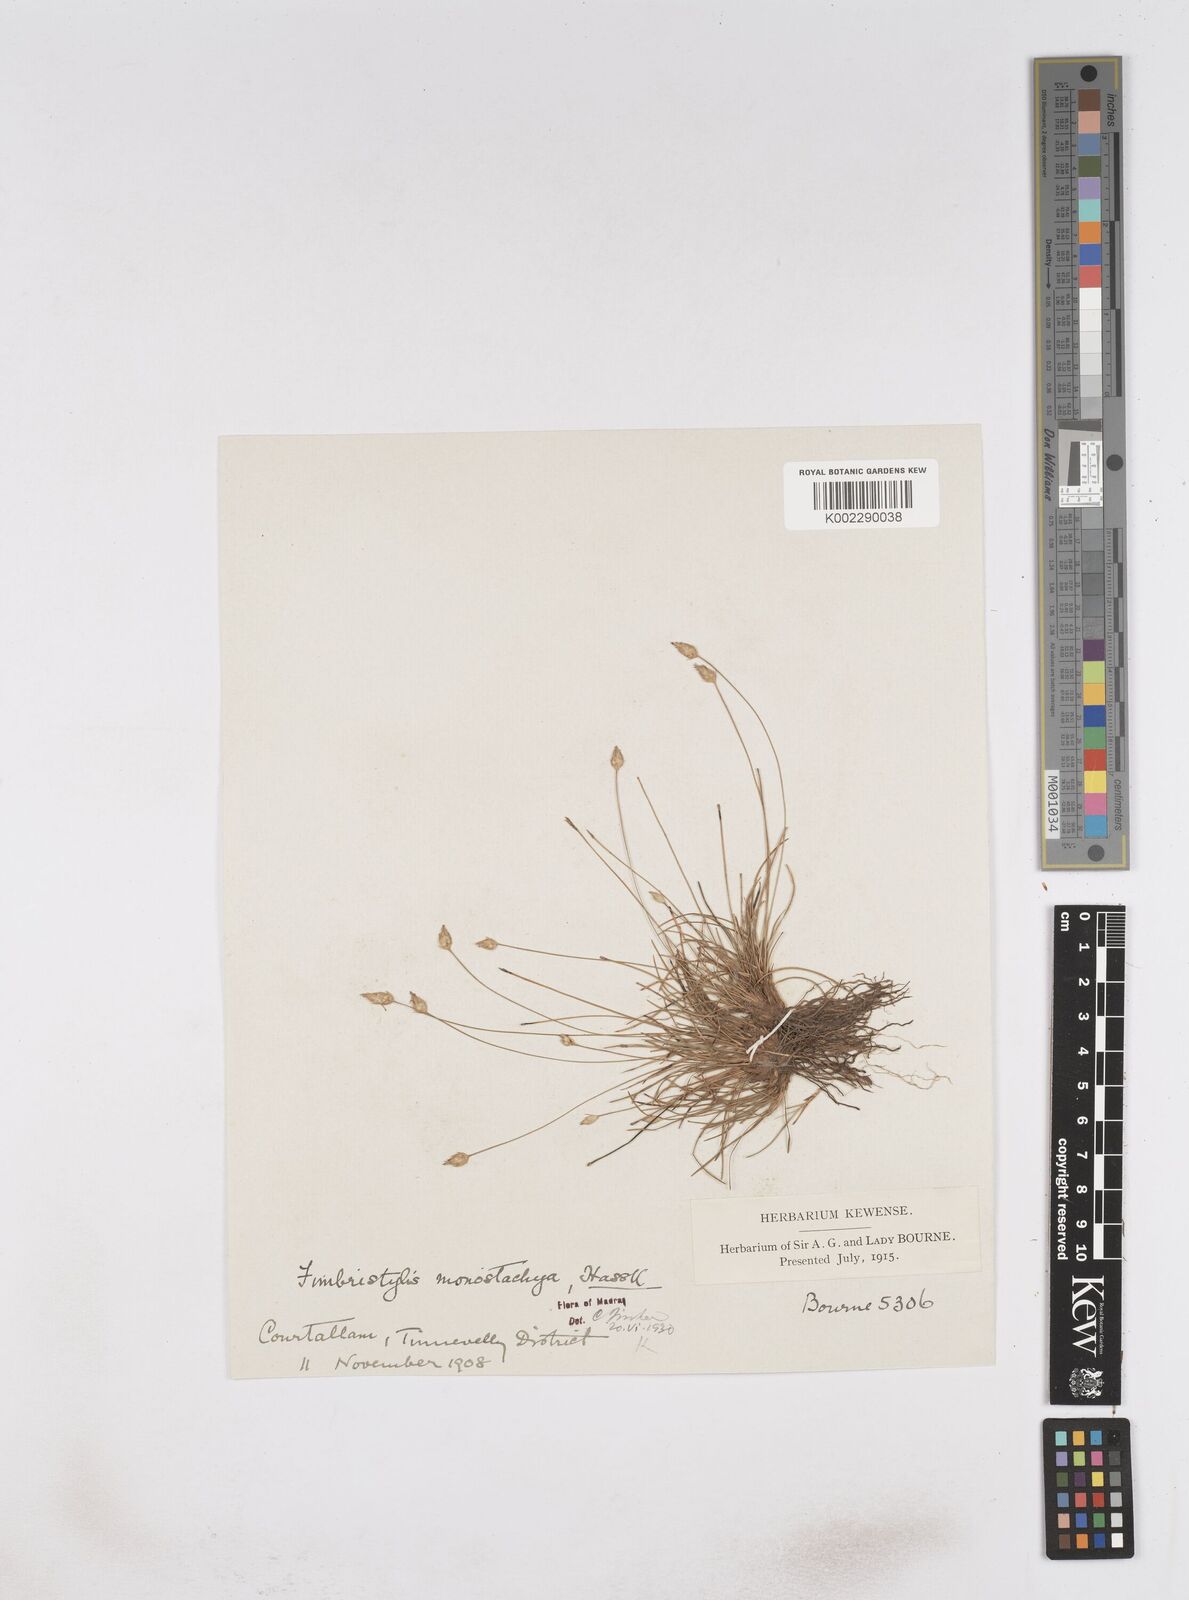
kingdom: Plantae
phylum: Tracheophyta
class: Liliopsida
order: Poales
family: Cyperaceae
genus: Abildgaardia
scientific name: Abildgaardia ovata
